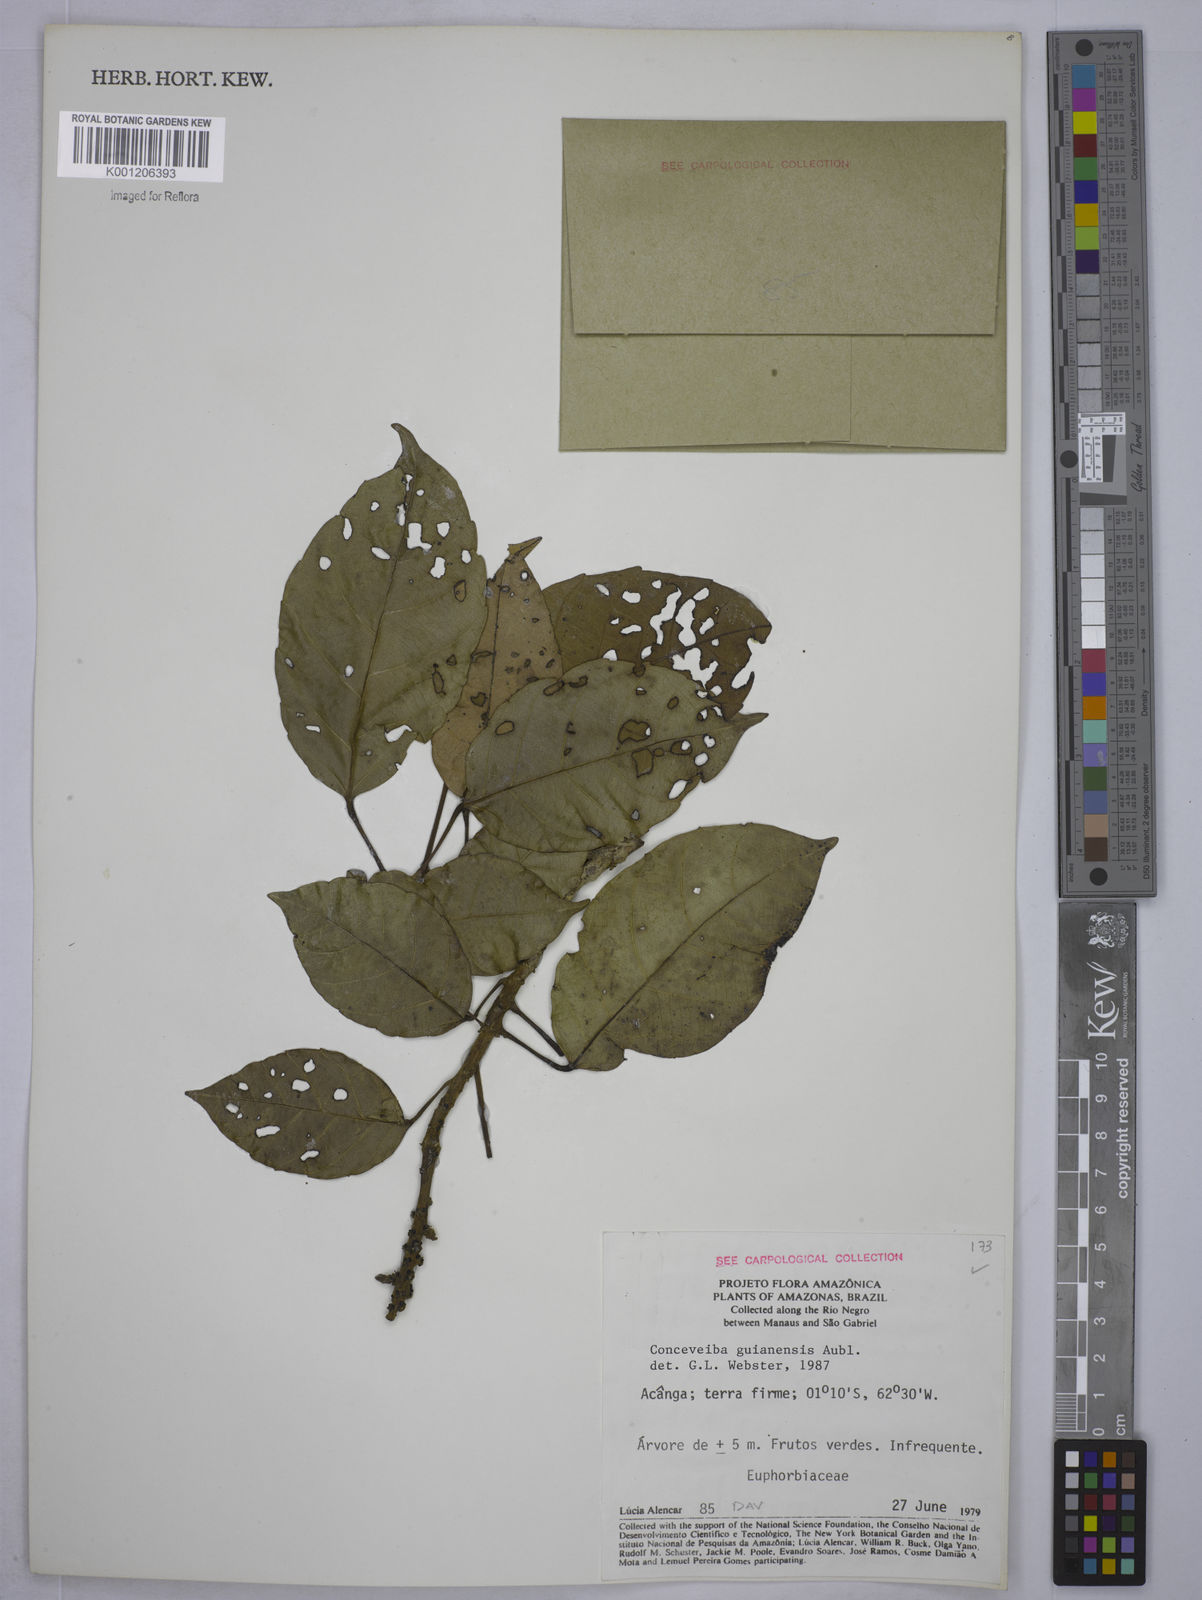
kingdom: Plantae
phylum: Tracheophyta
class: Magnoliopsida
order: Malpighiales
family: Euphorbiaceae
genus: Conceveiba
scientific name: Conceveiba guianensis
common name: Poatoru
